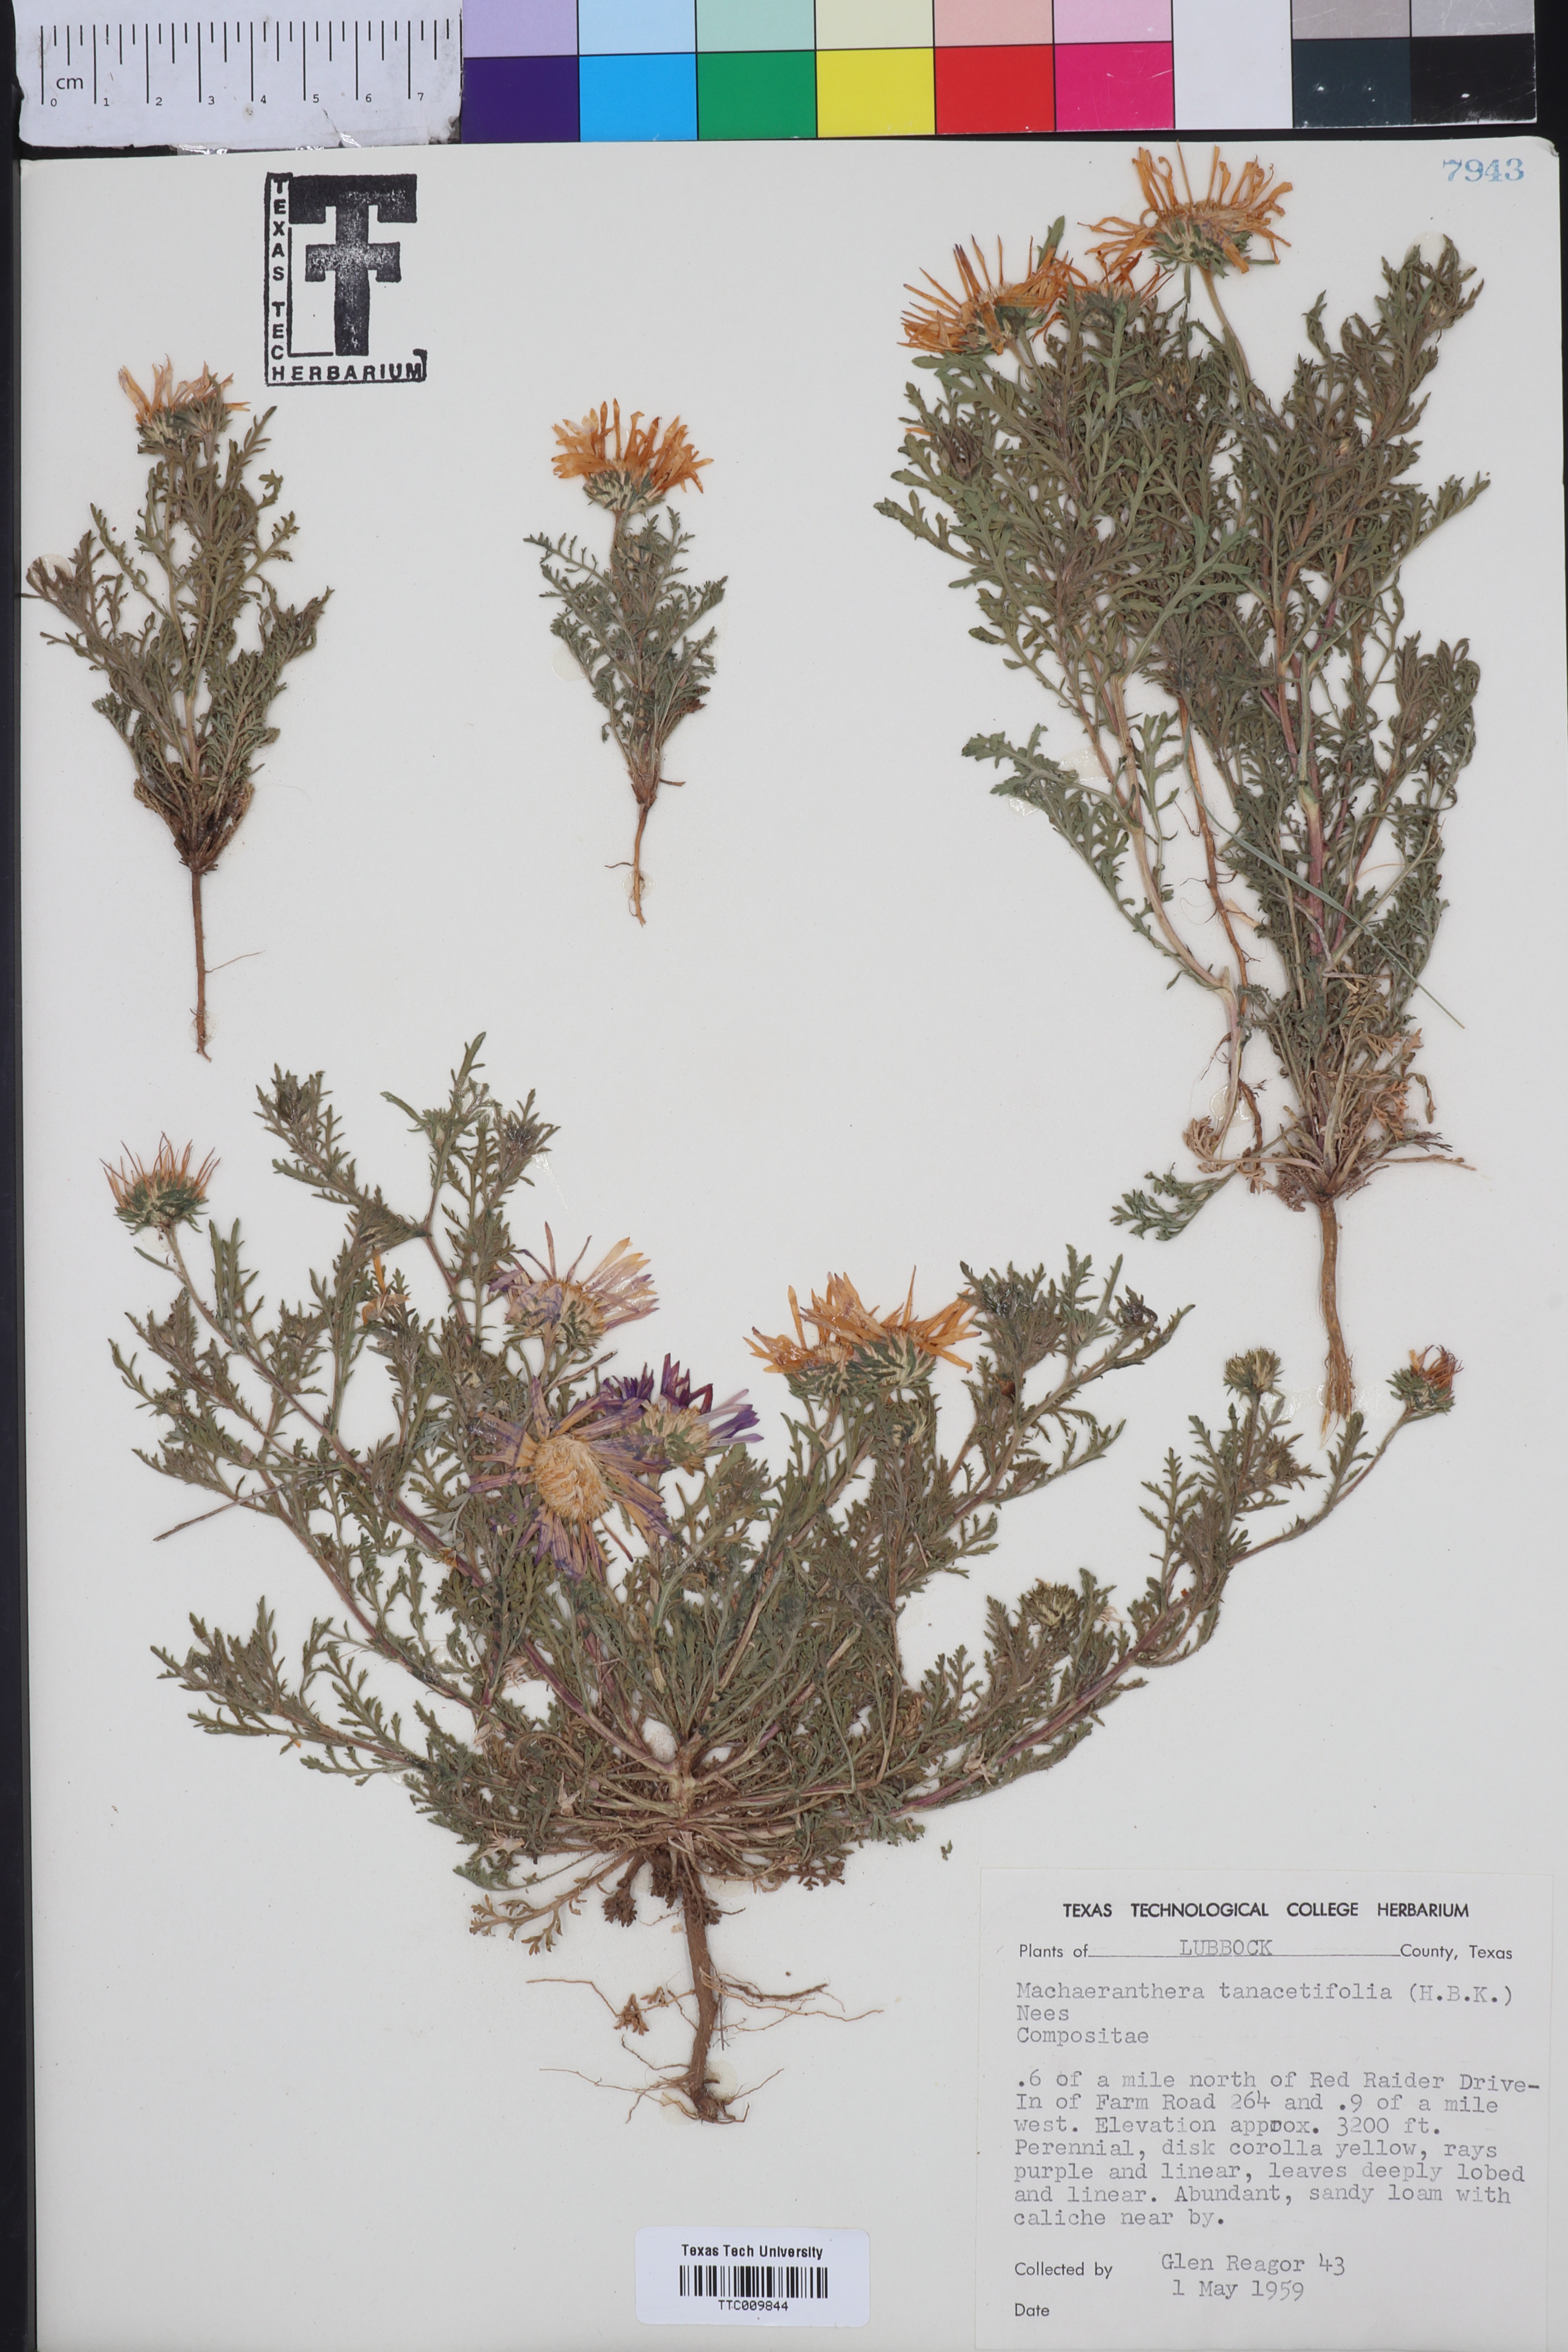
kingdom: Plantae
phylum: Tracheophyta
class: Magnoliopsida
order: Asterales
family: Asteraceae
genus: Machaeranthera
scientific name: Machaeranthera tanacetifolia
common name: Tansy-aster
